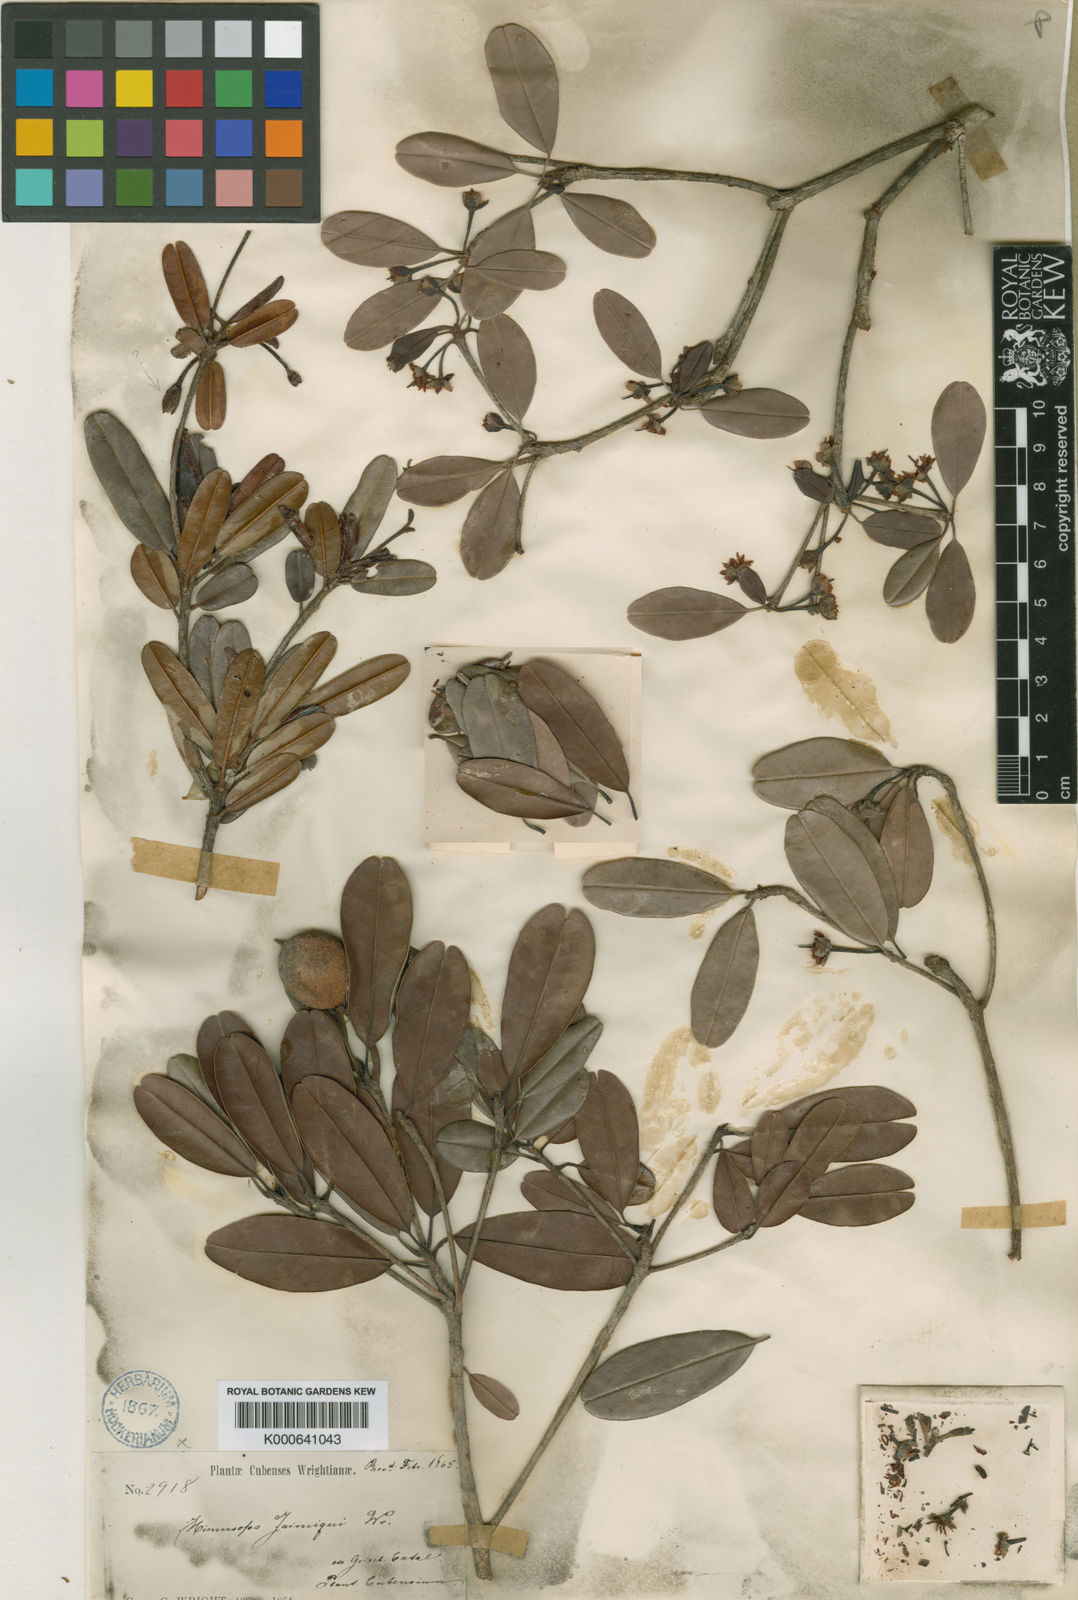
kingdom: Plantae
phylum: Tracheophyta
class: Magnoliopsida
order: Ericales
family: Sapotaceae
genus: Manilkara
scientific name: Manilkara jaimiqui
